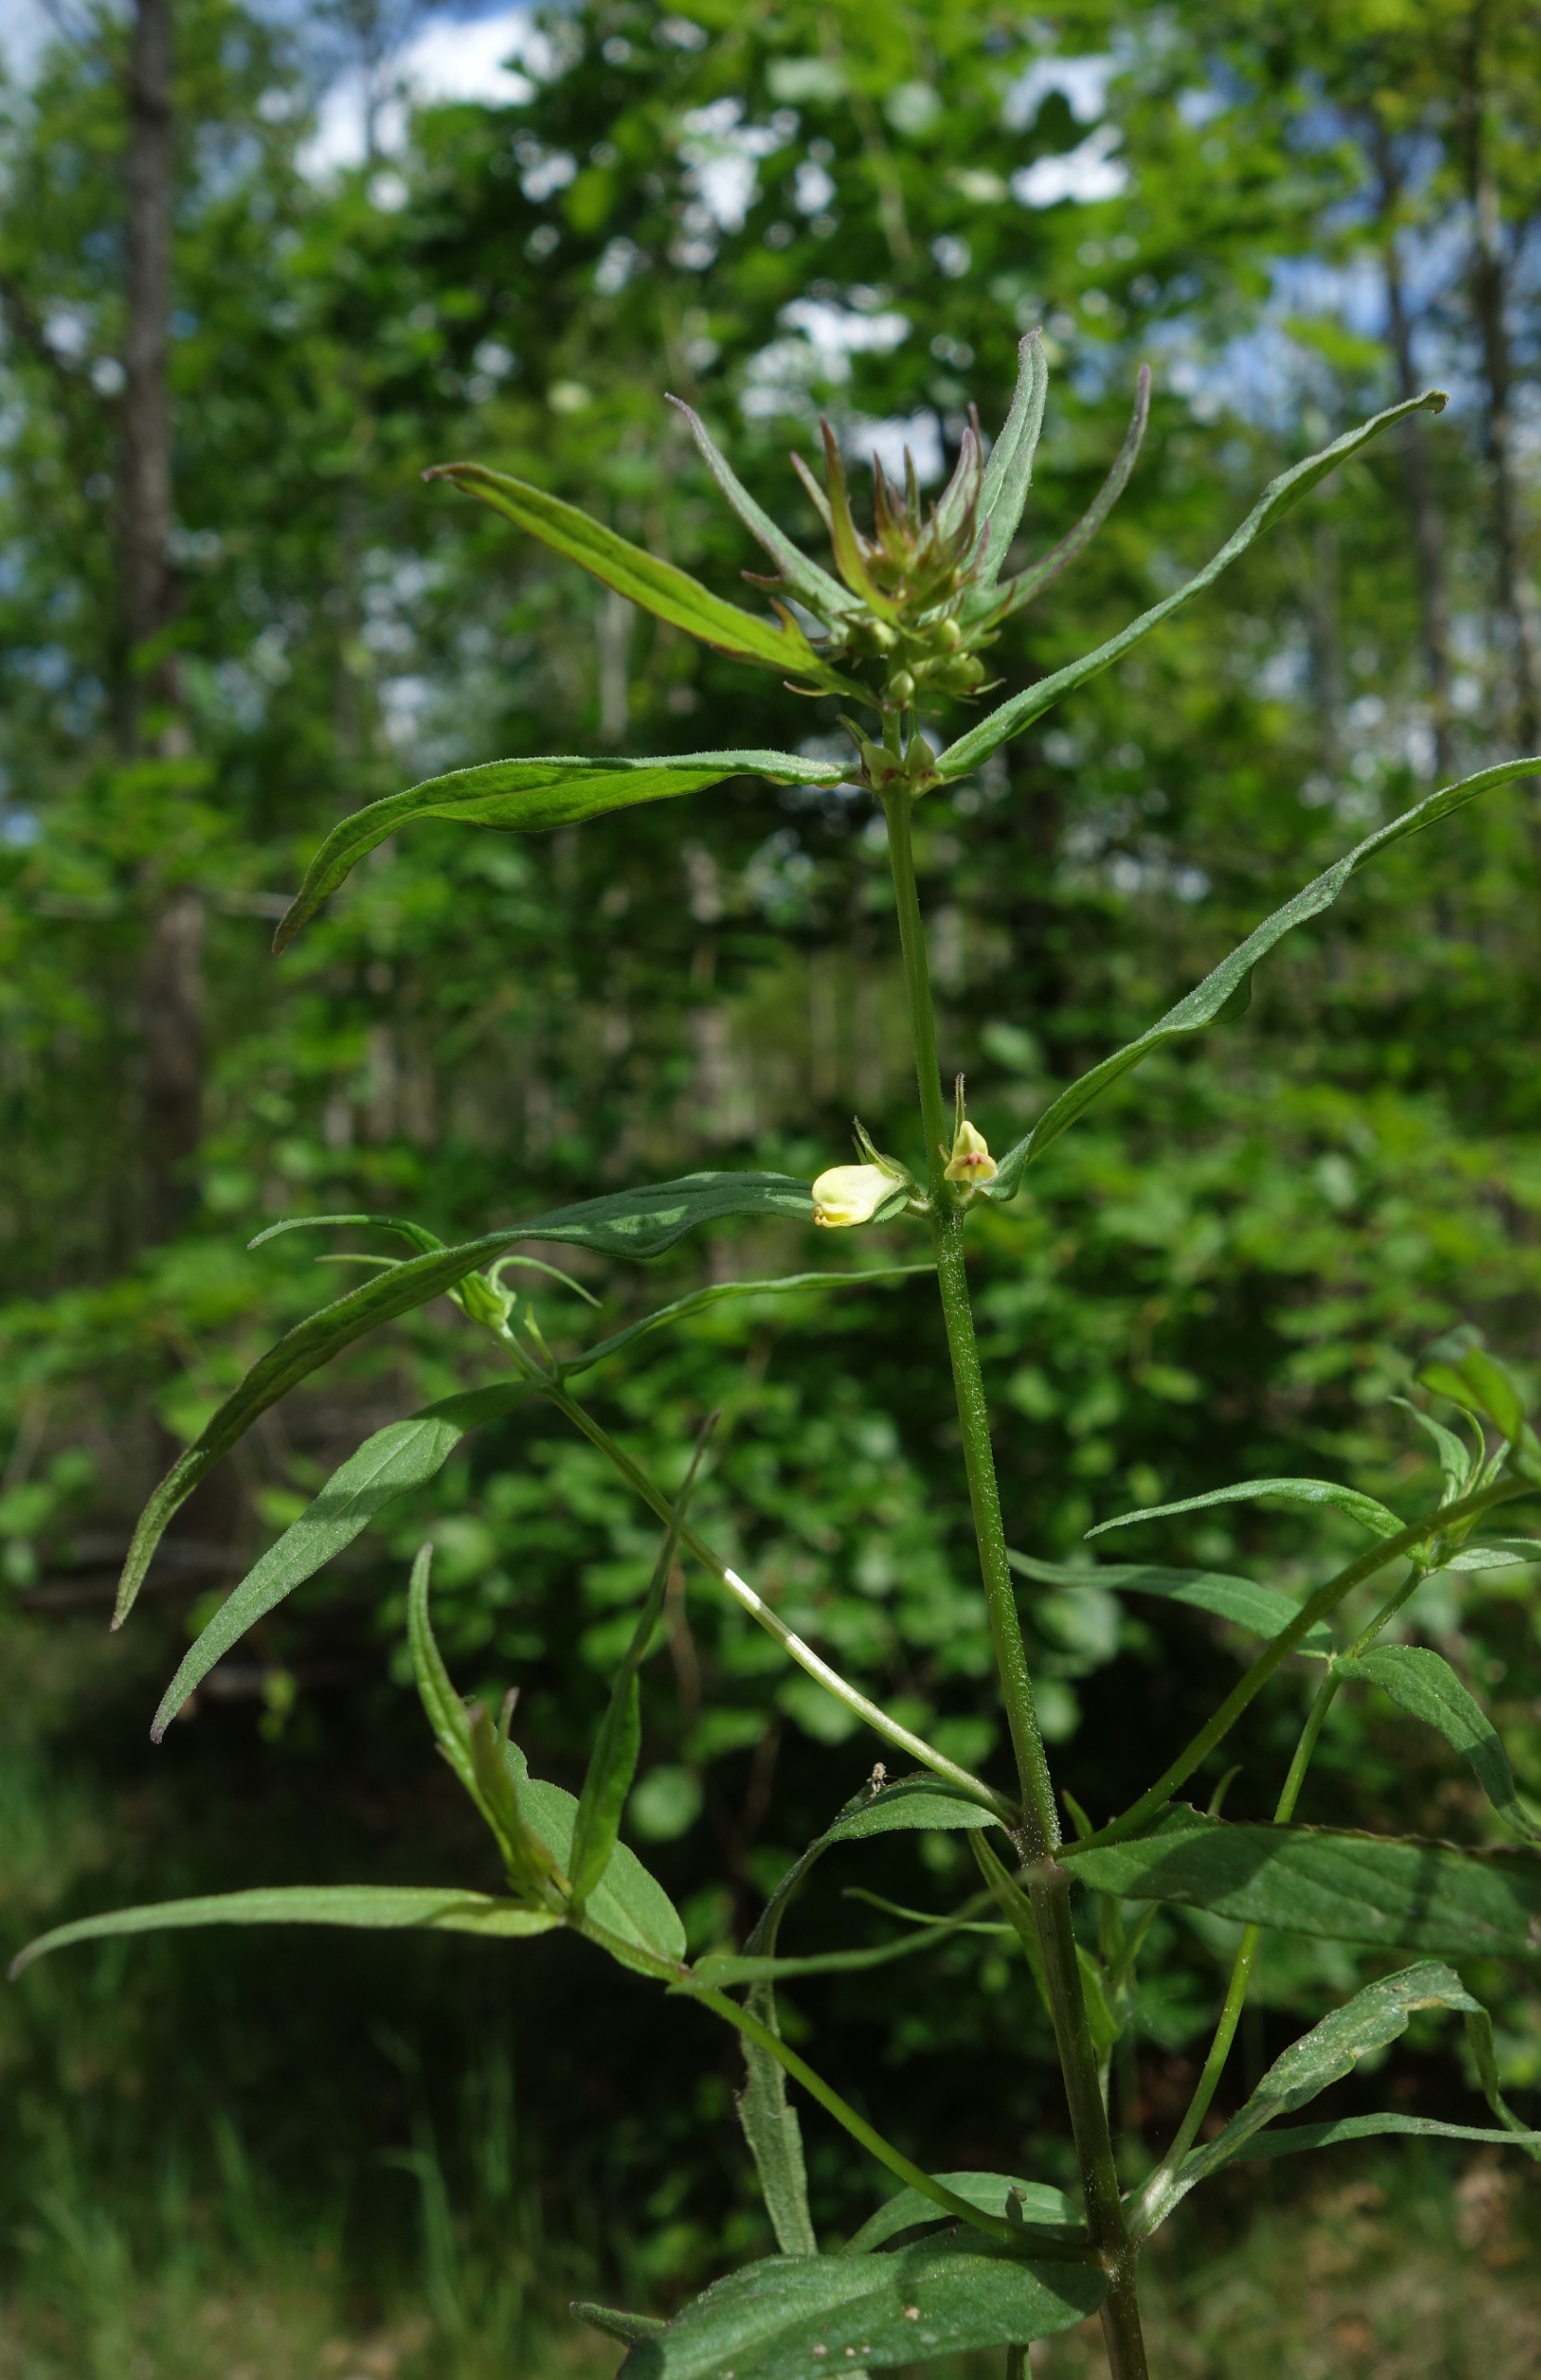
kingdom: Plantae
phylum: Tracheophyta
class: Magnoliopsida
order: Lamiales
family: Orobanchaceae
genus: Melampyrum
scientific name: Melampyrum pratense
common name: Almindelig kohvede
